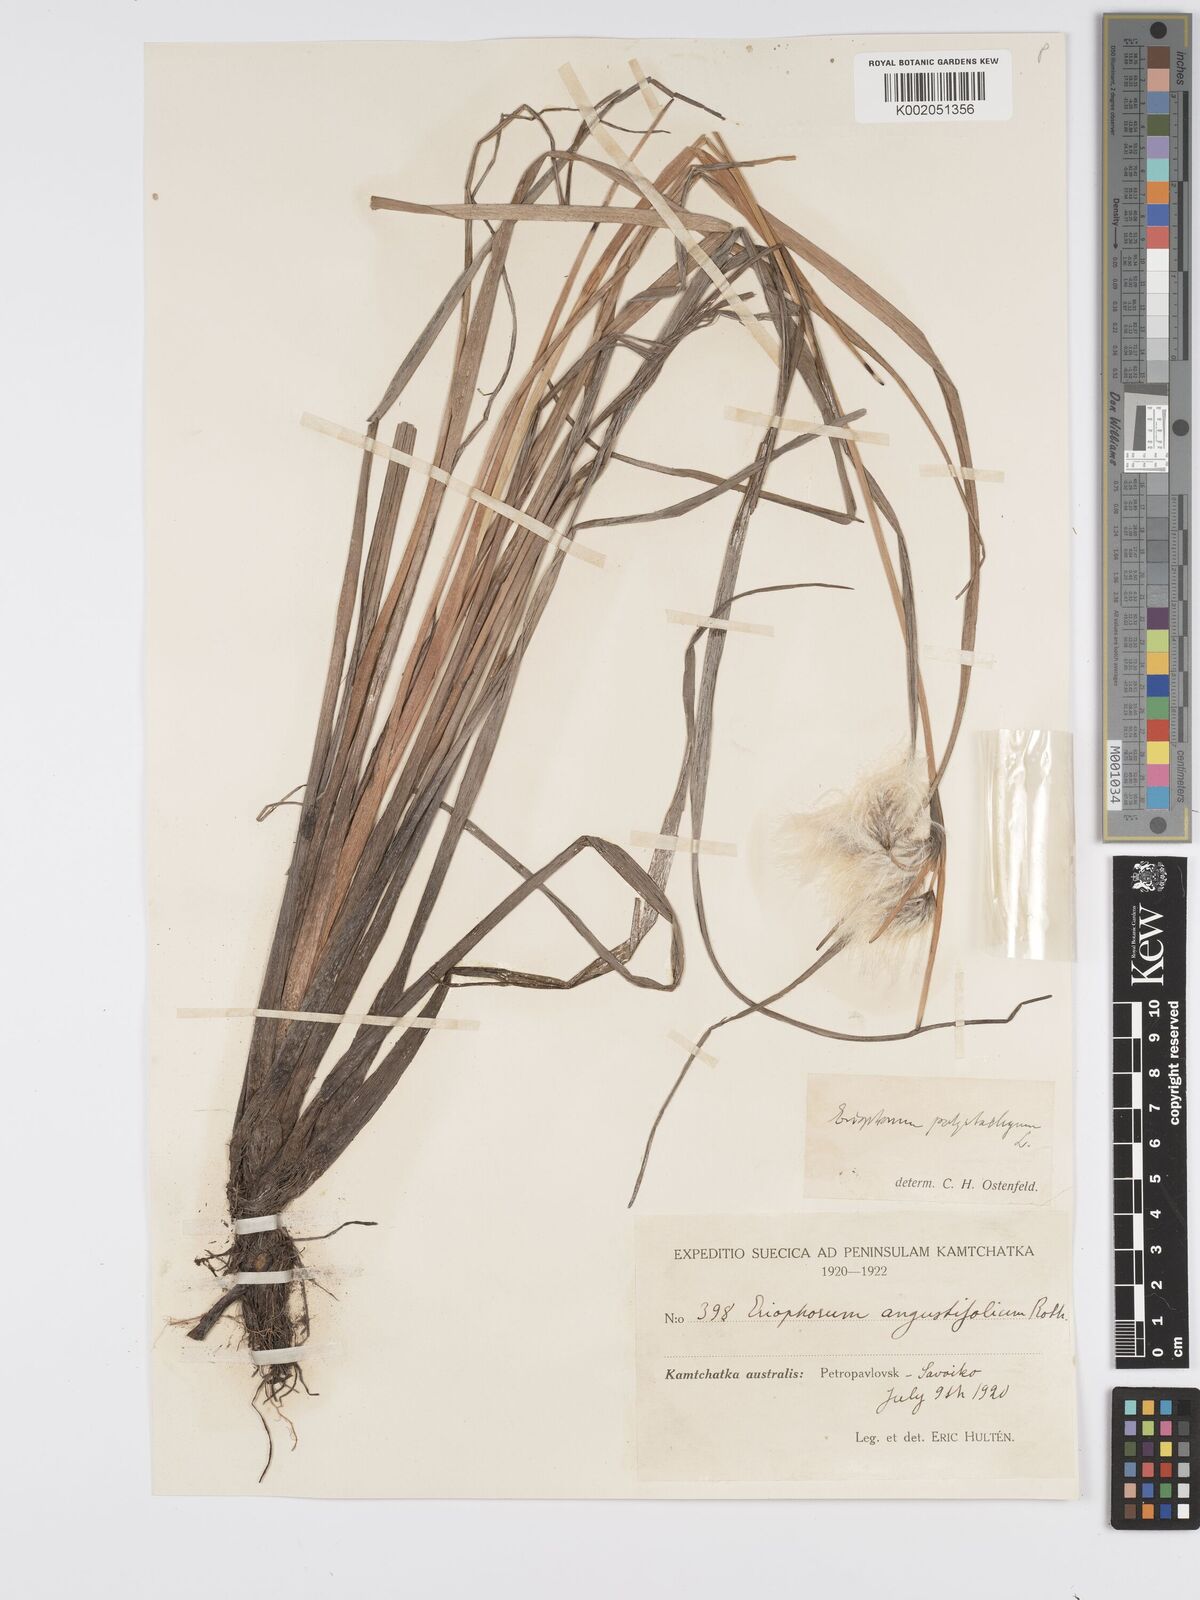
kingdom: Plantae
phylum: Tracheophyta
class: Liliopsida
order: Poales
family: Cyperaceae
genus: Eriophorum
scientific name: Eriophorum angustifolium
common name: Common cottongrass
